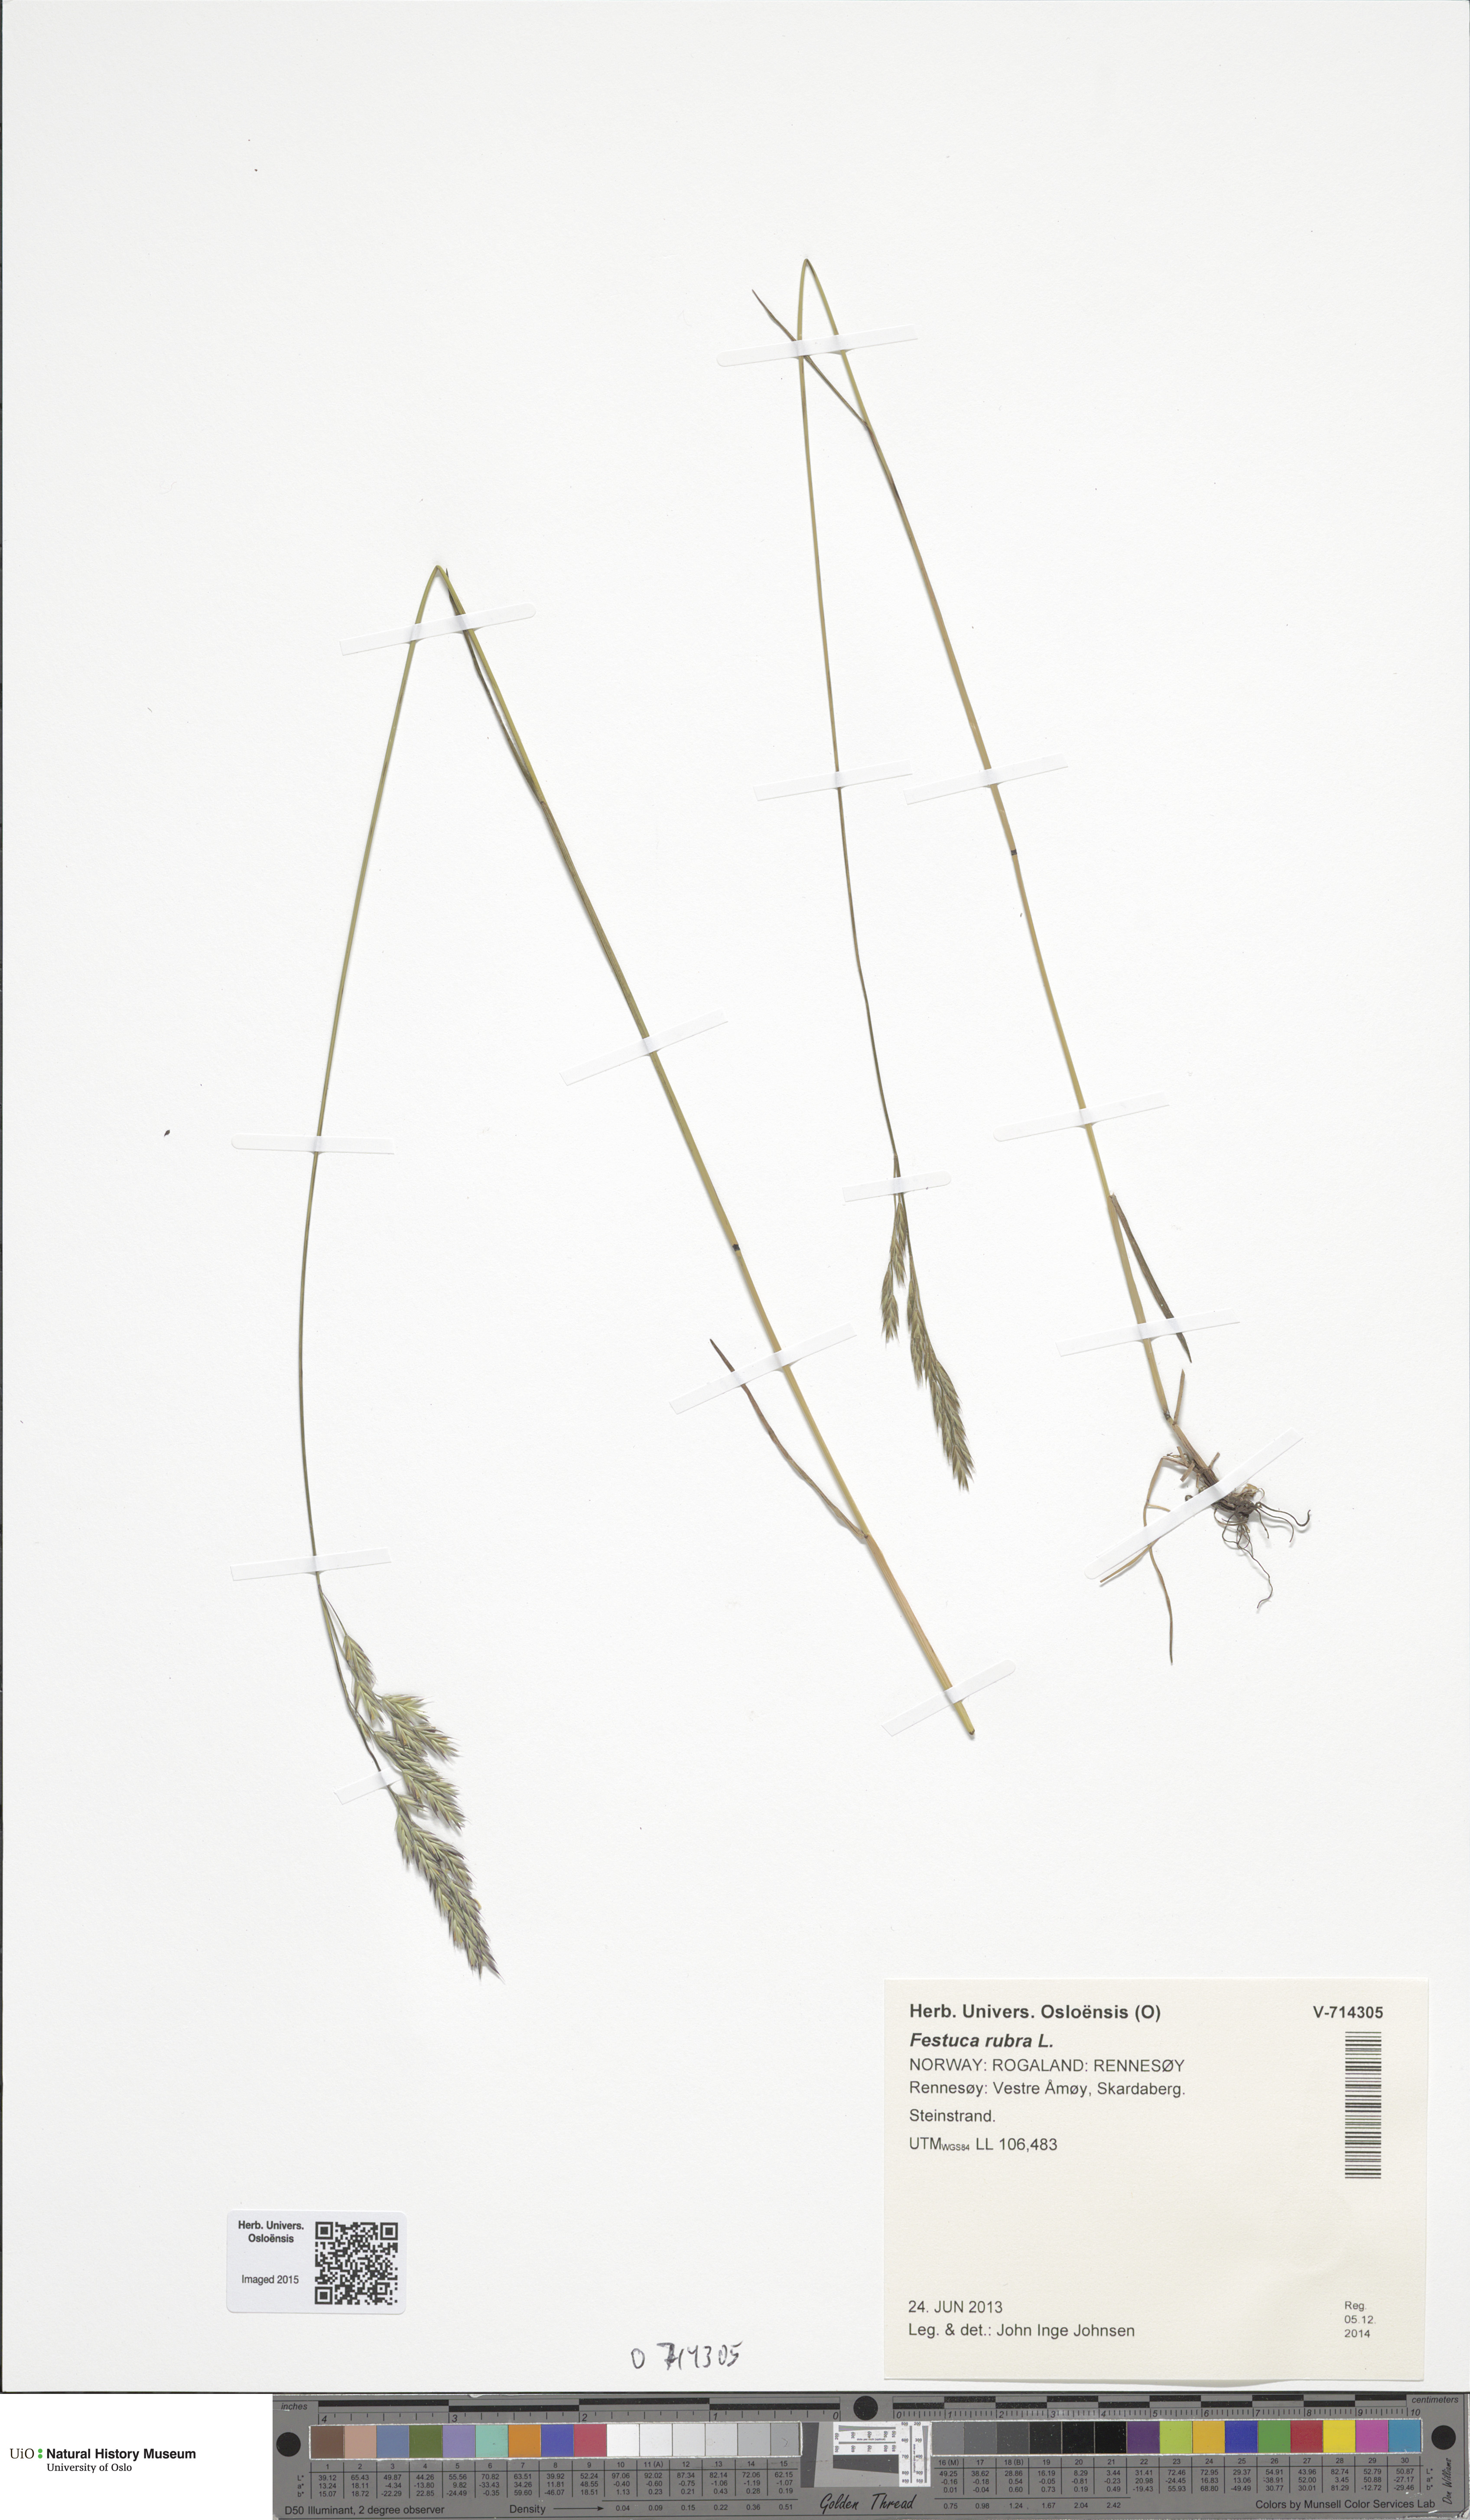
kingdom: Plantae
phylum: Tracheophyta
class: Liliopsida
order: Poales
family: Poaceae
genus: Festuca
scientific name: Festuca rubra
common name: Red fescue
